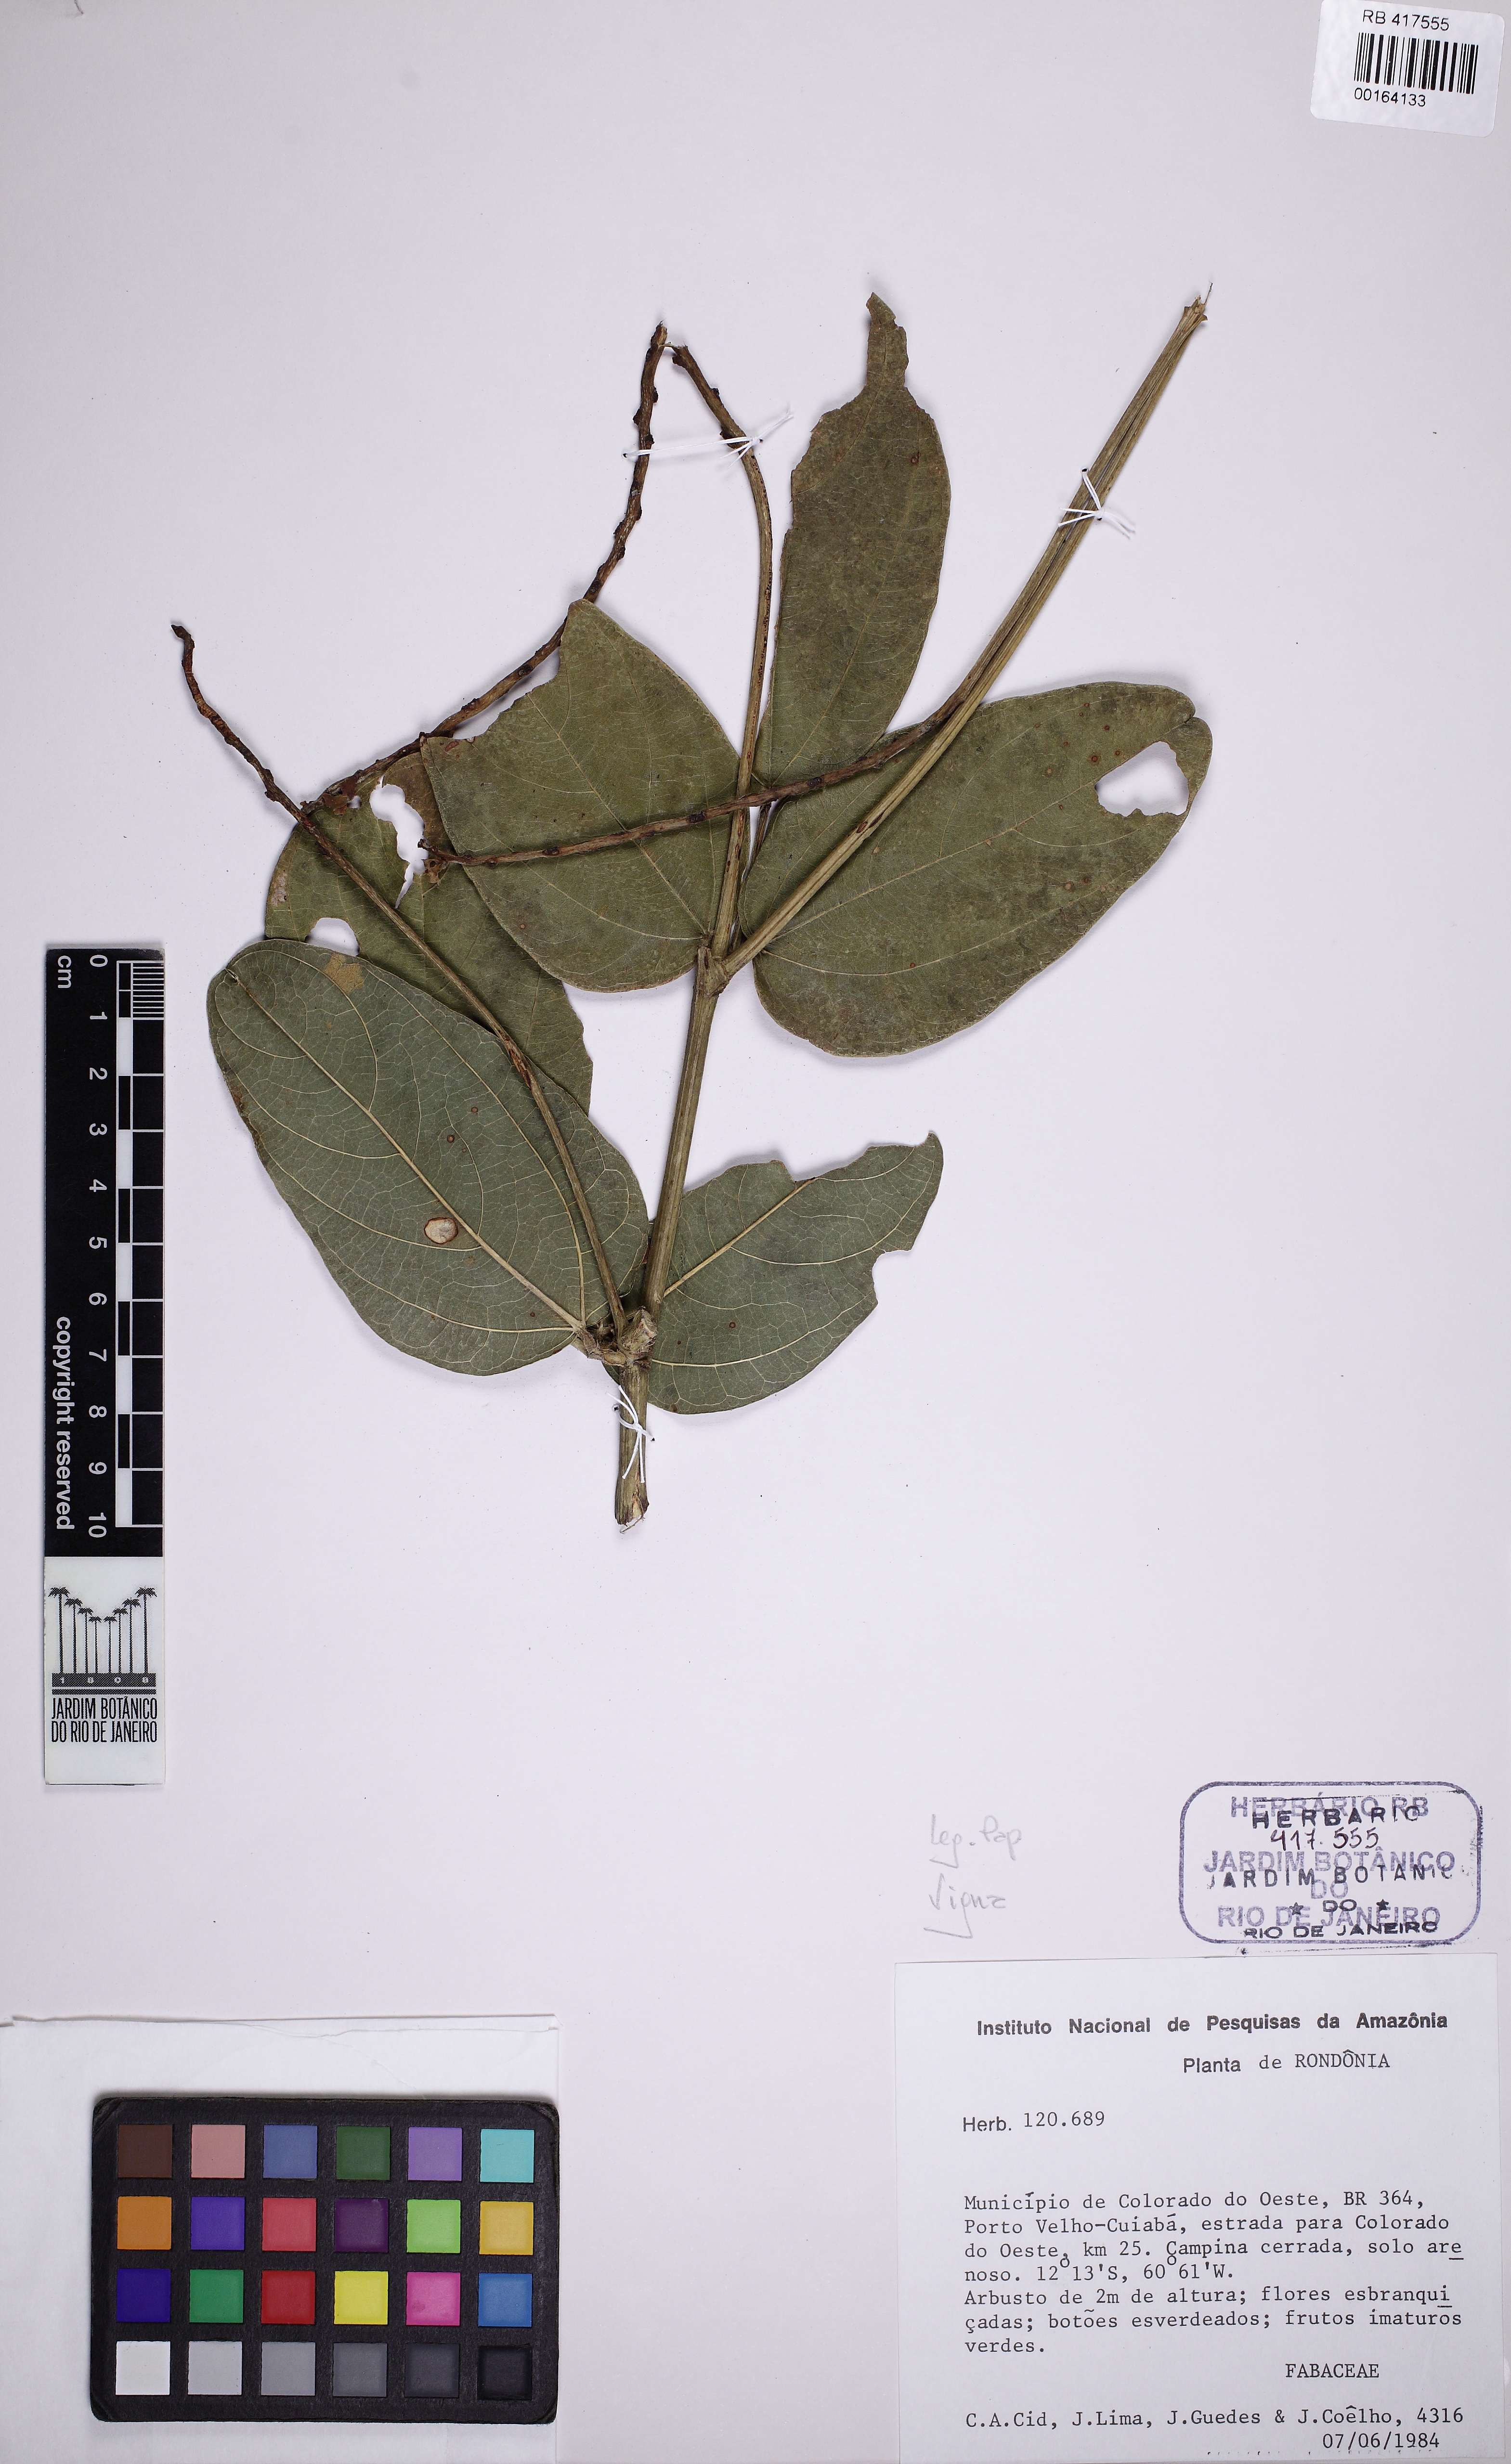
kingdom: Plantae
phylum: Tracheophyta
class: Magnoliopsida
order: Fabales
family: Fabaceae
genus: Ancistrotropis
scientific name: Ancistrotropis firmula
